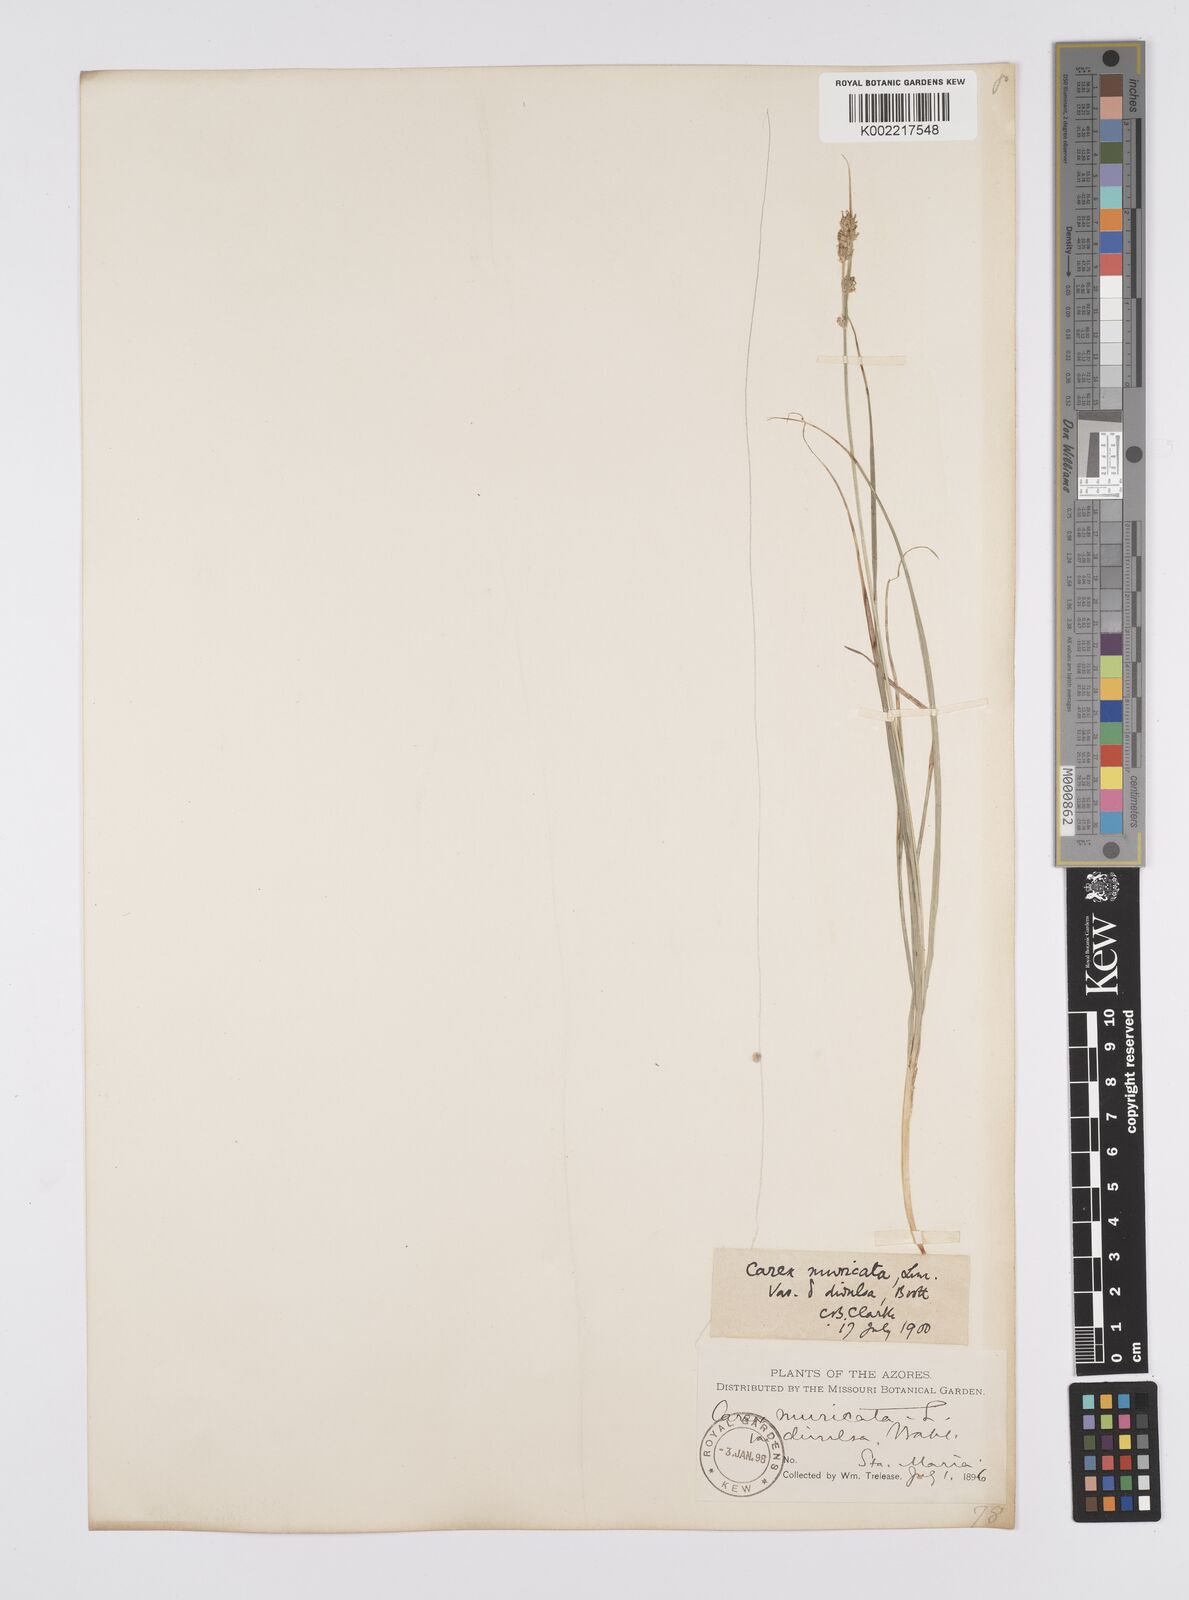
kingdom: Plantae
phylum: Tracheophyta
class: Liliopsida
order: Poales
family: Cyperaceae
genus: Carex
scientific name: Carex divulsa
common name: Grassland sedge
